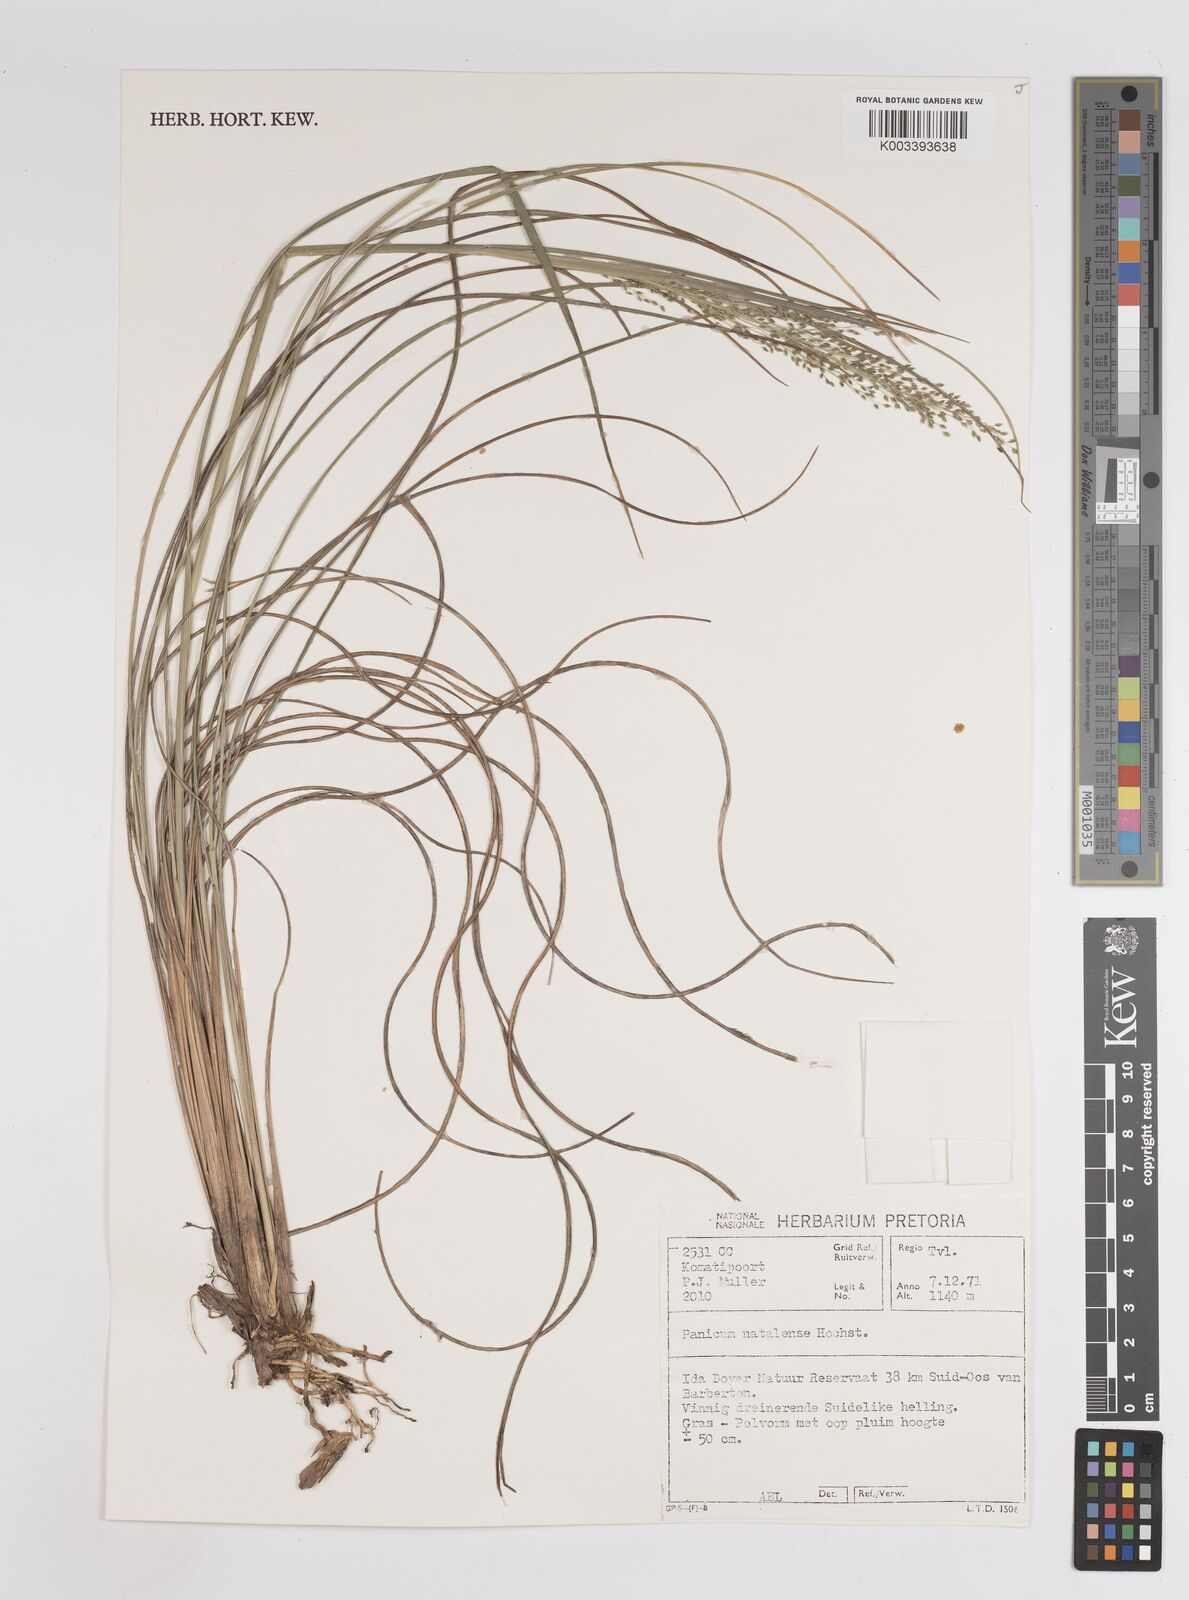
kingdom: Plantae
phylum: Tracheophyta
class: Liliopsida
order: Poales
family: Poaceae
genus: Trichanthecium
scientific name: Trichanthecium natalense
